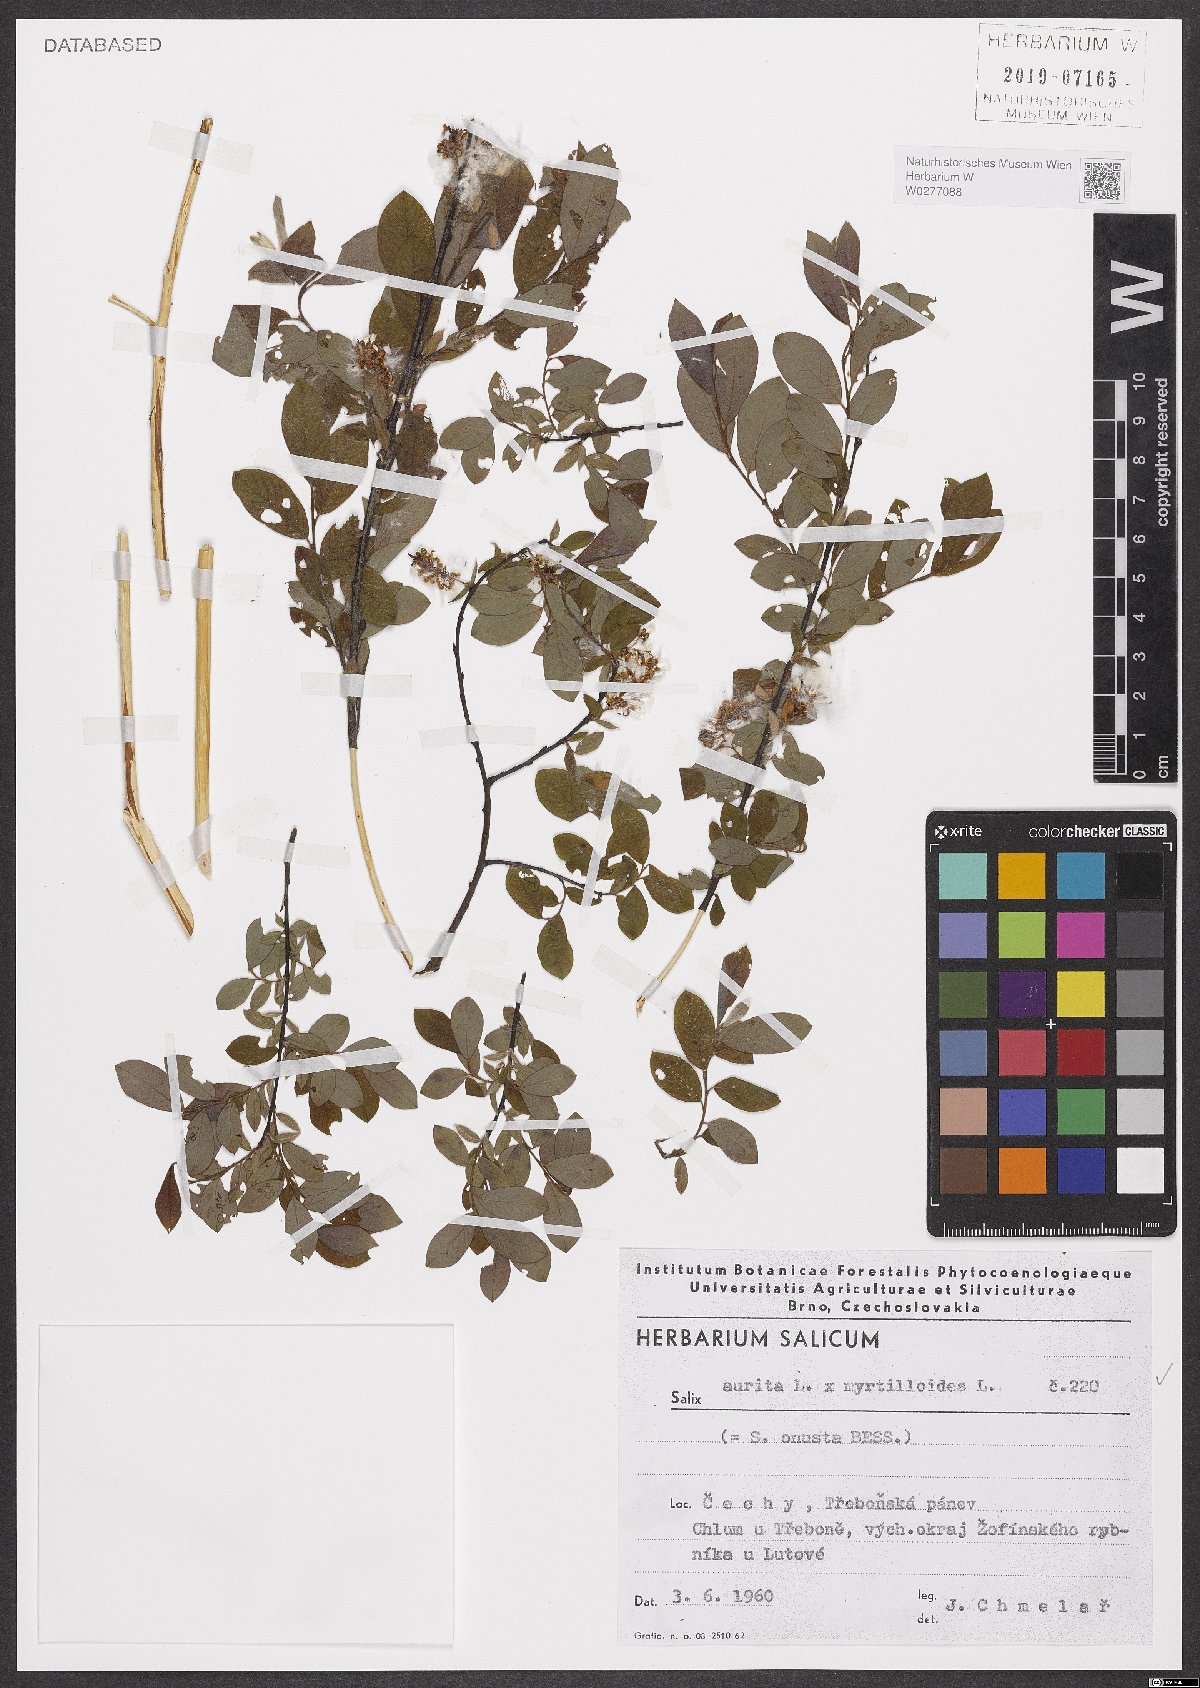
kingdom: Plantae
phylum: Tracheophyta
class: Magnoliopsida
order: Malpighiales
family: Salicaceae
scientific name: Salicaceae
